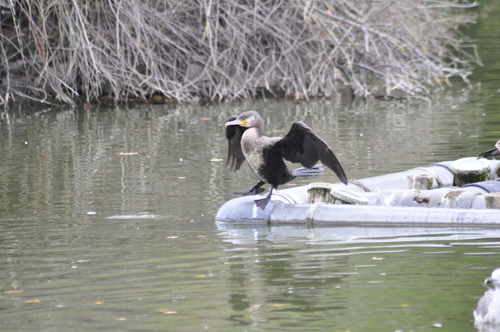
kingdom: Animalia
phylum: Chordata
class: Aves
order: Suliformes
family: Phalacrocoracidae
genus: Phalacrocorax
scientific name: Phalacrocorax carbo
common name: Great cormorant
